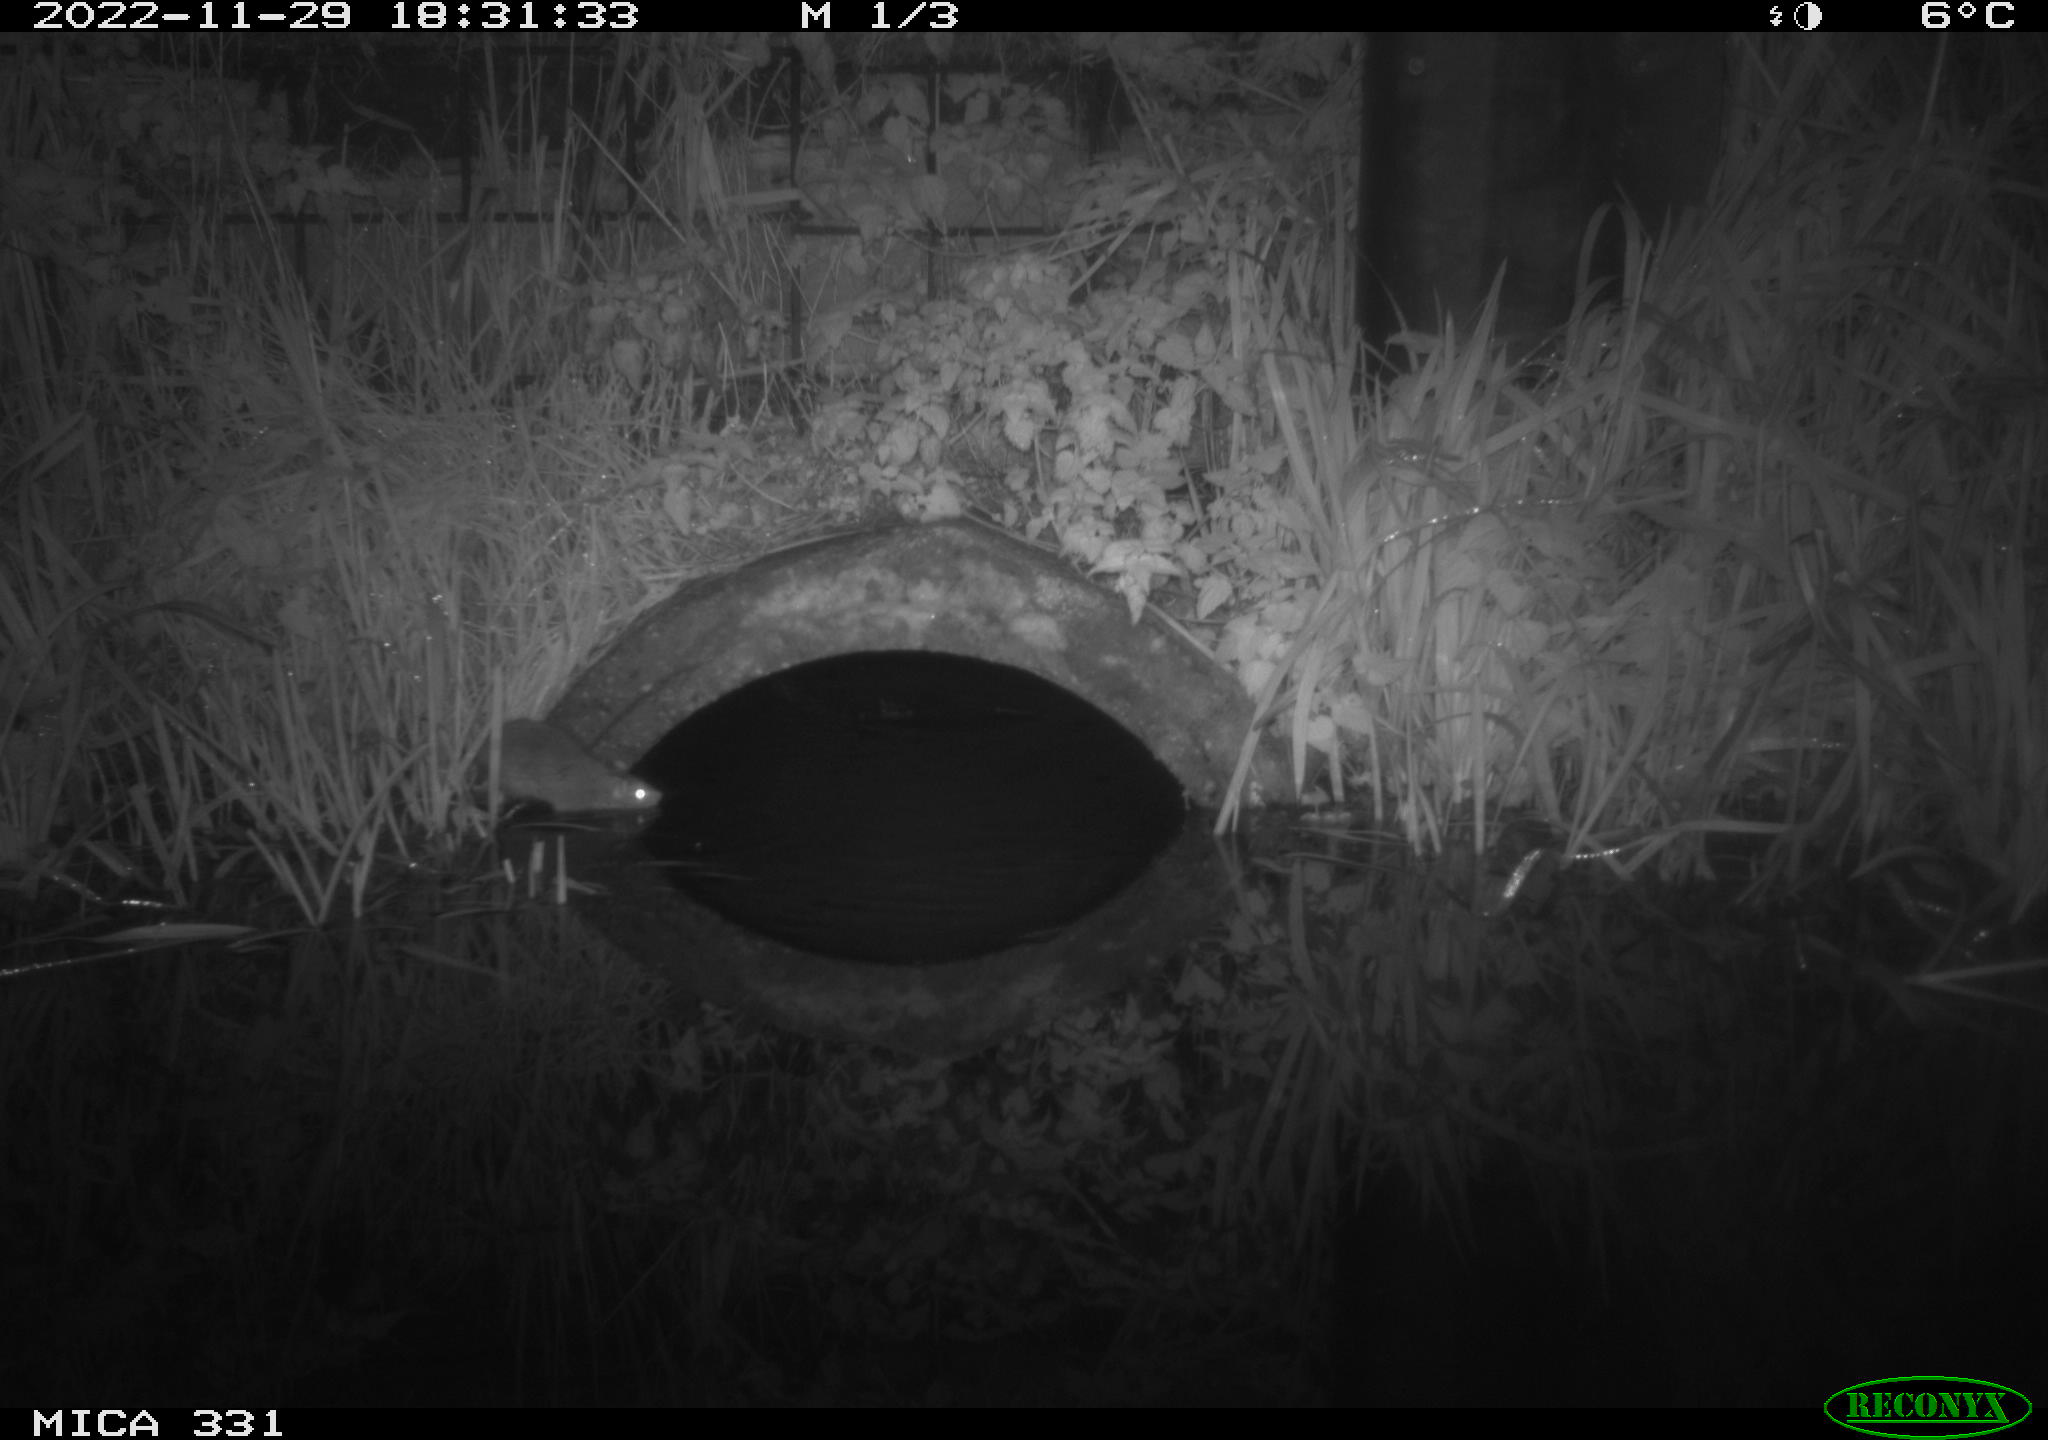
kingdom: Animalia
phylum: Chordata
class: Mammalia
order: Rodentia
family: Muridae
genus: Rattus
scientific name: Rattus norvegicus
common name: Brown rat
